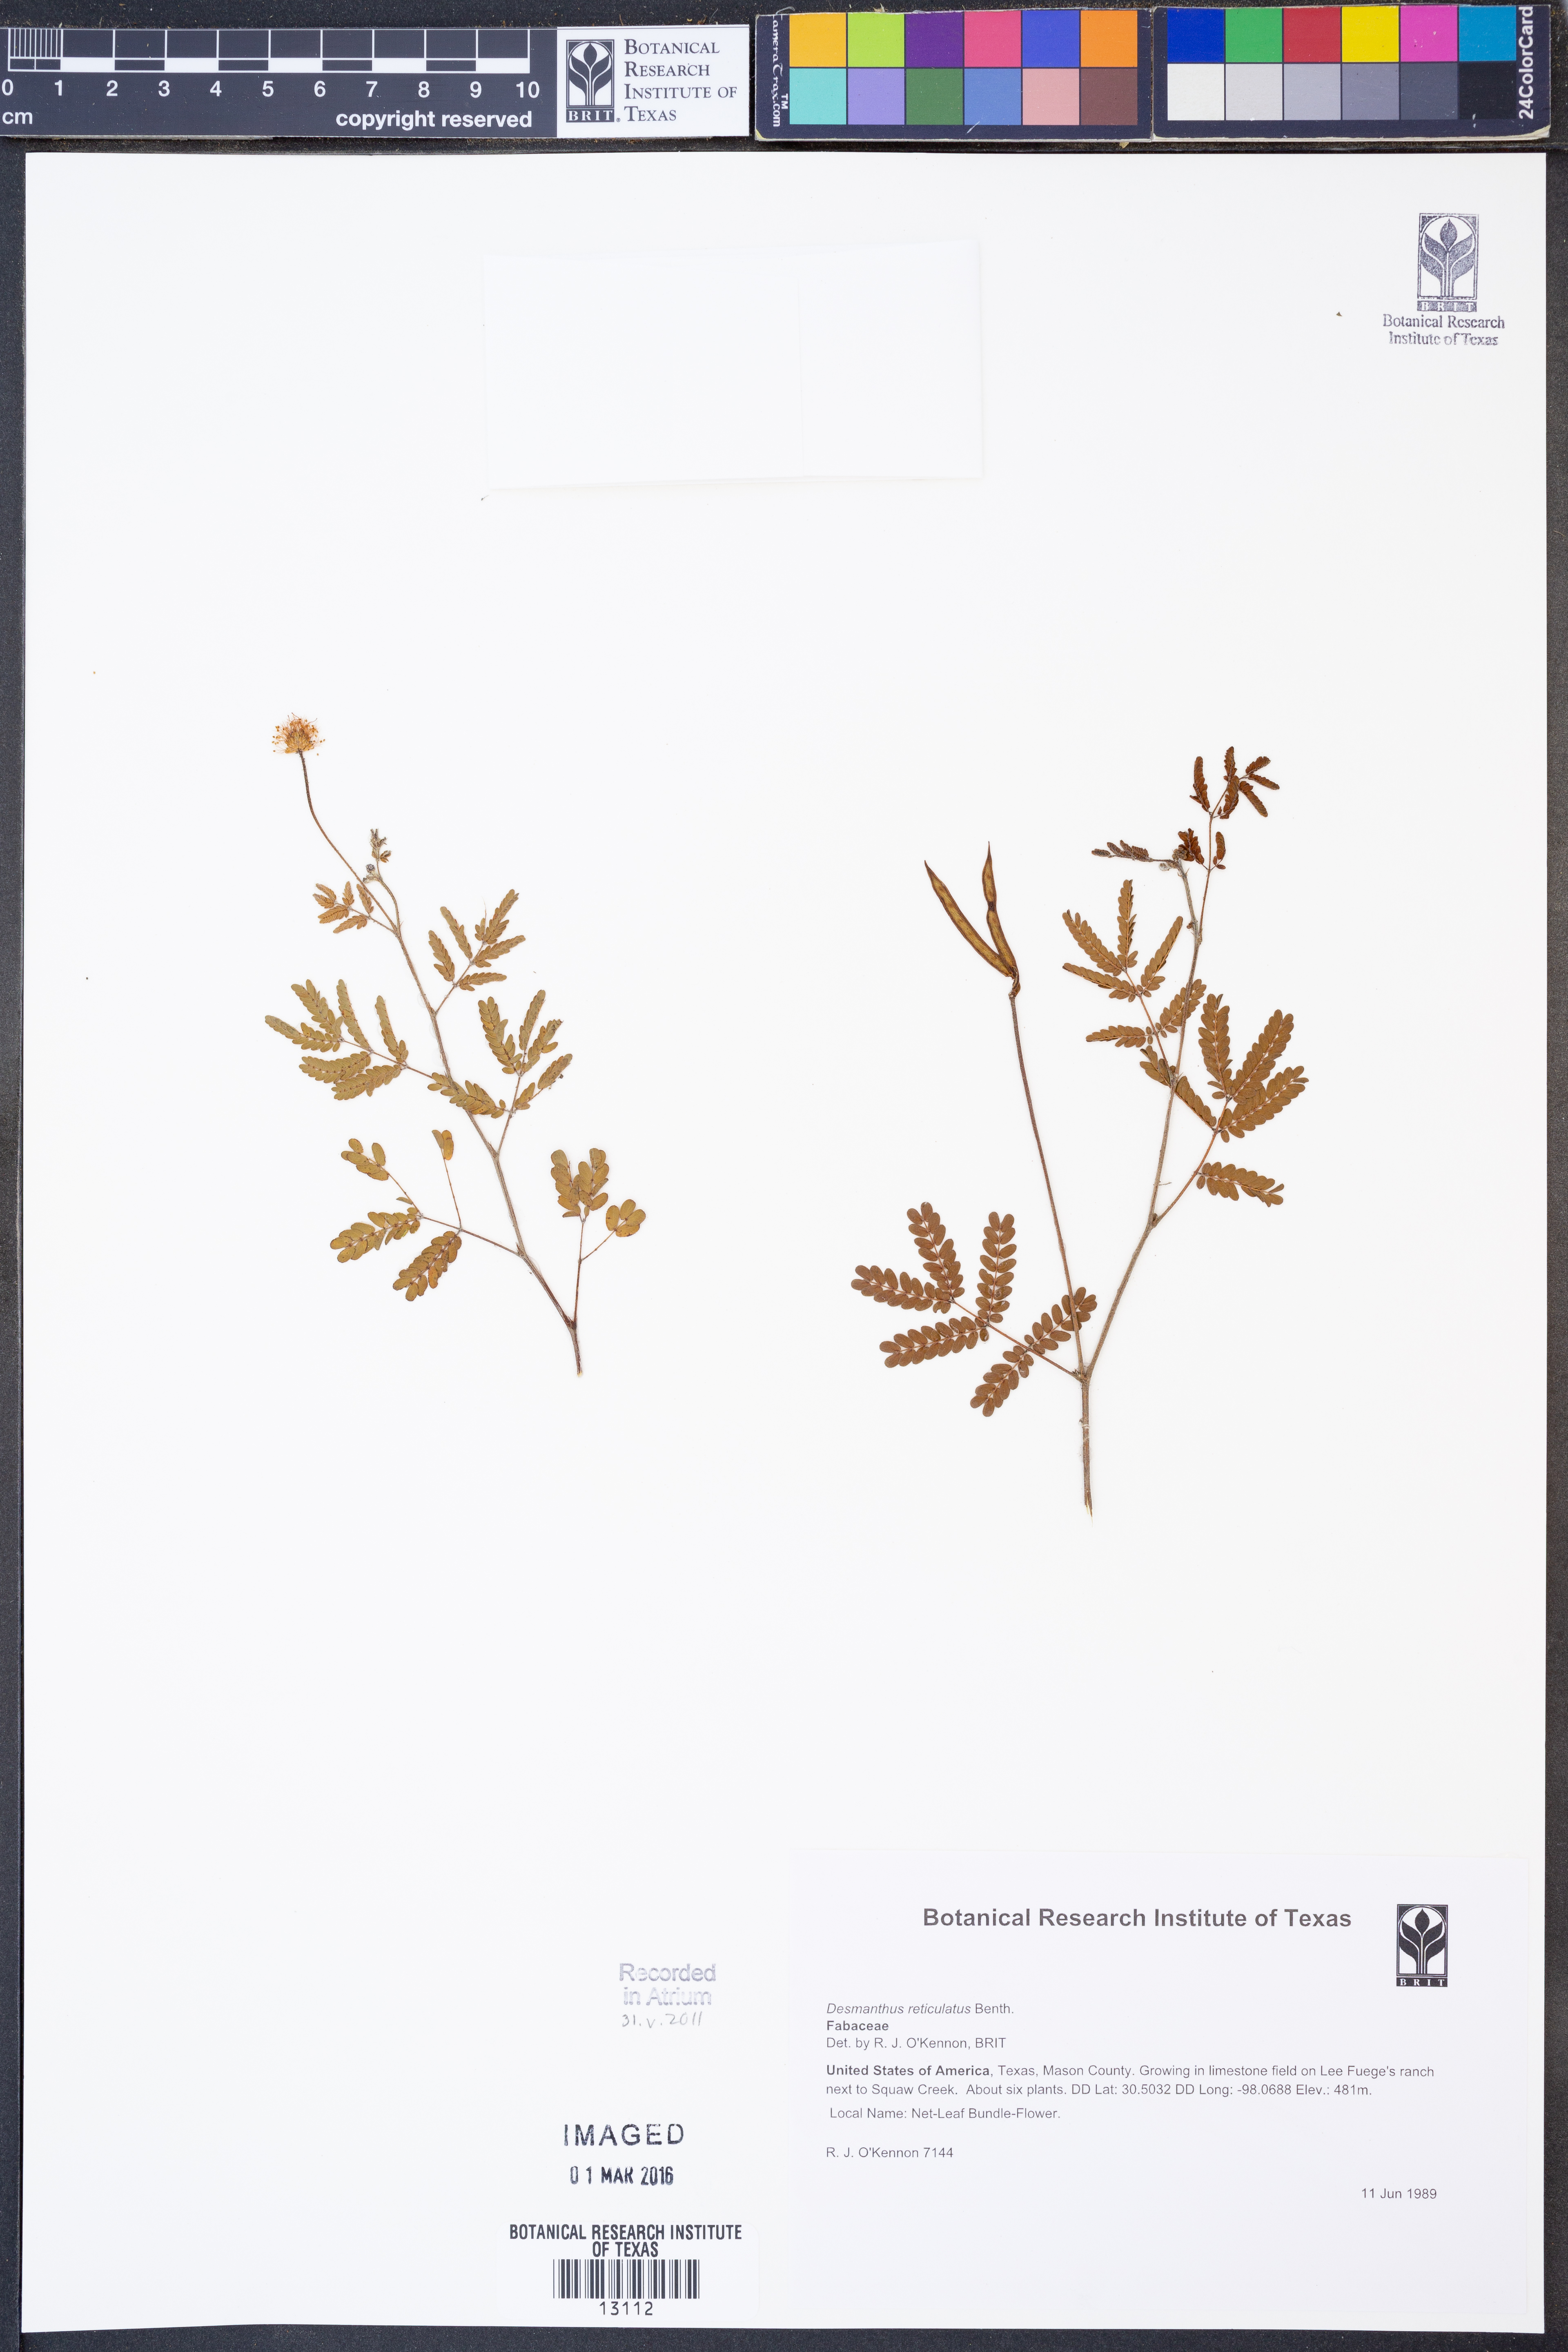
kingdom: Plantae
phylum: Tracheophyta
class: Magnoliopsida
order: Fabales
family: Fabaceae
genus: Desmanthus
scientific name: Desmanthus reticulatus
